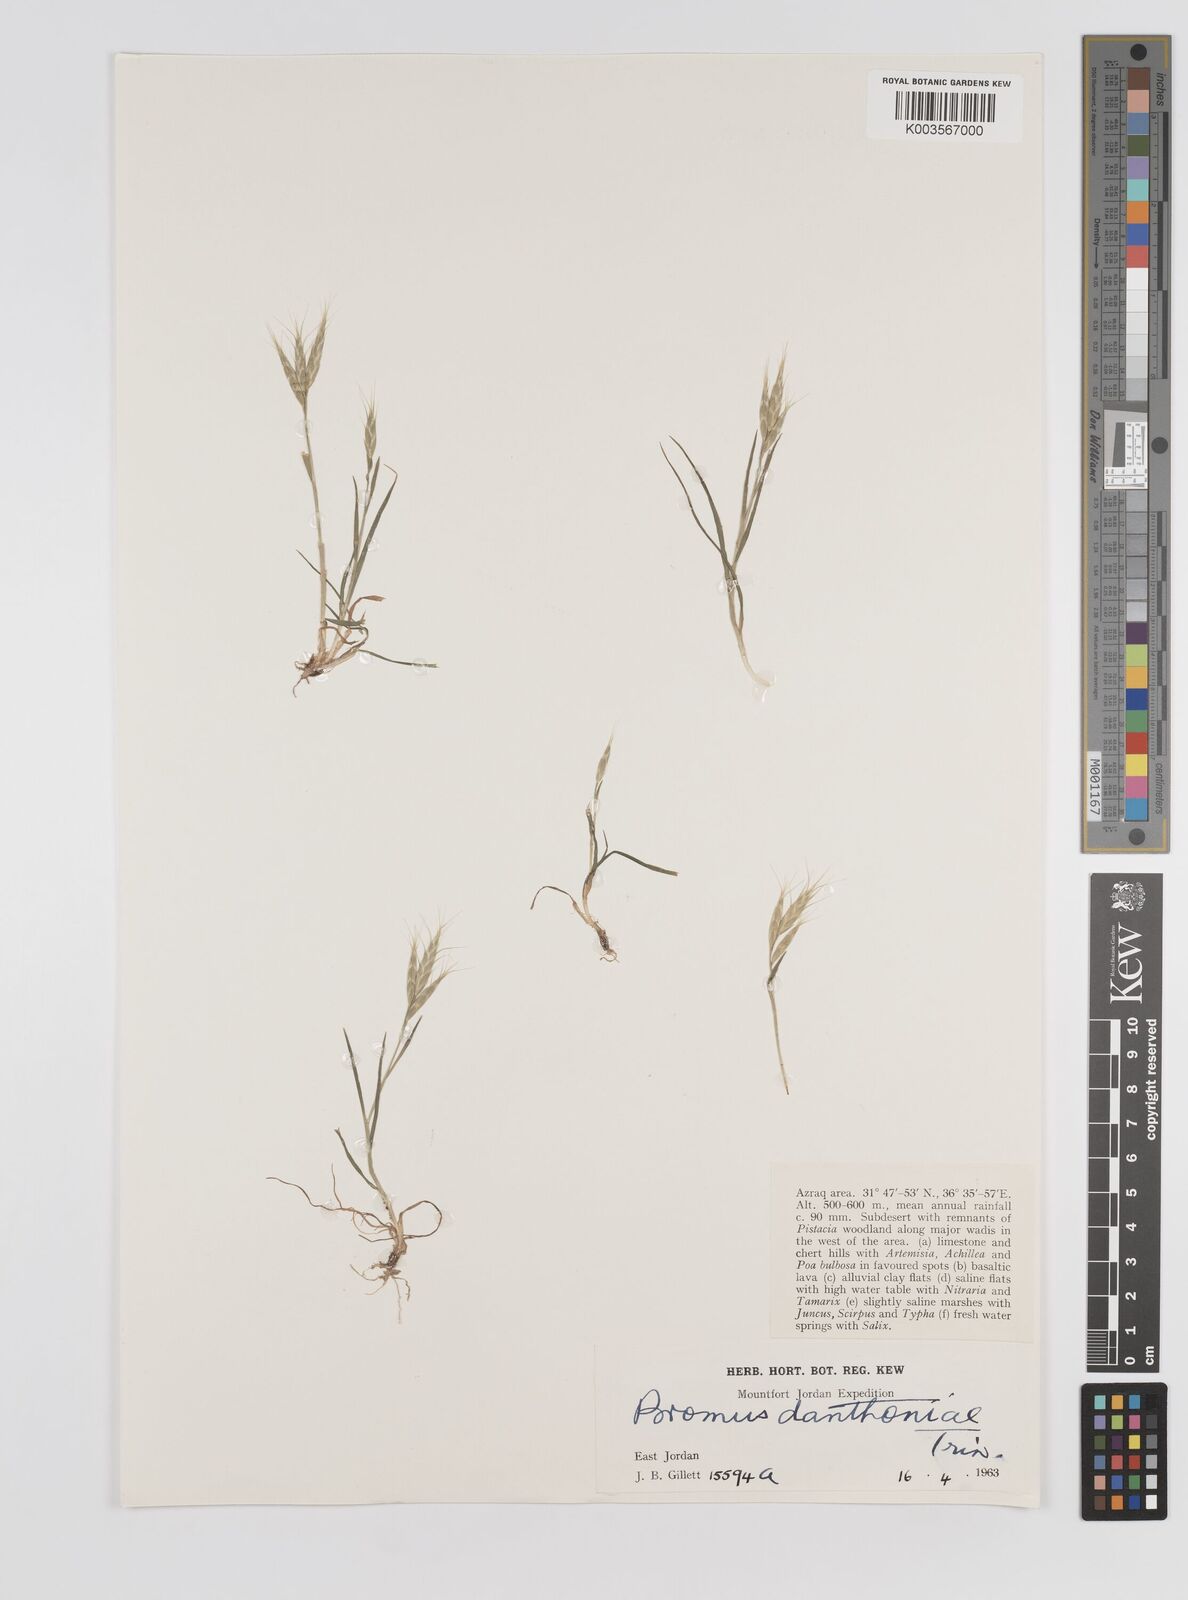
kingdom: Plantae
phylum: Tracheophyta
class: Liliopsida
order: Poales
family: Poaceae
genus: Bromus
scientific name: Bromus danthoniae
